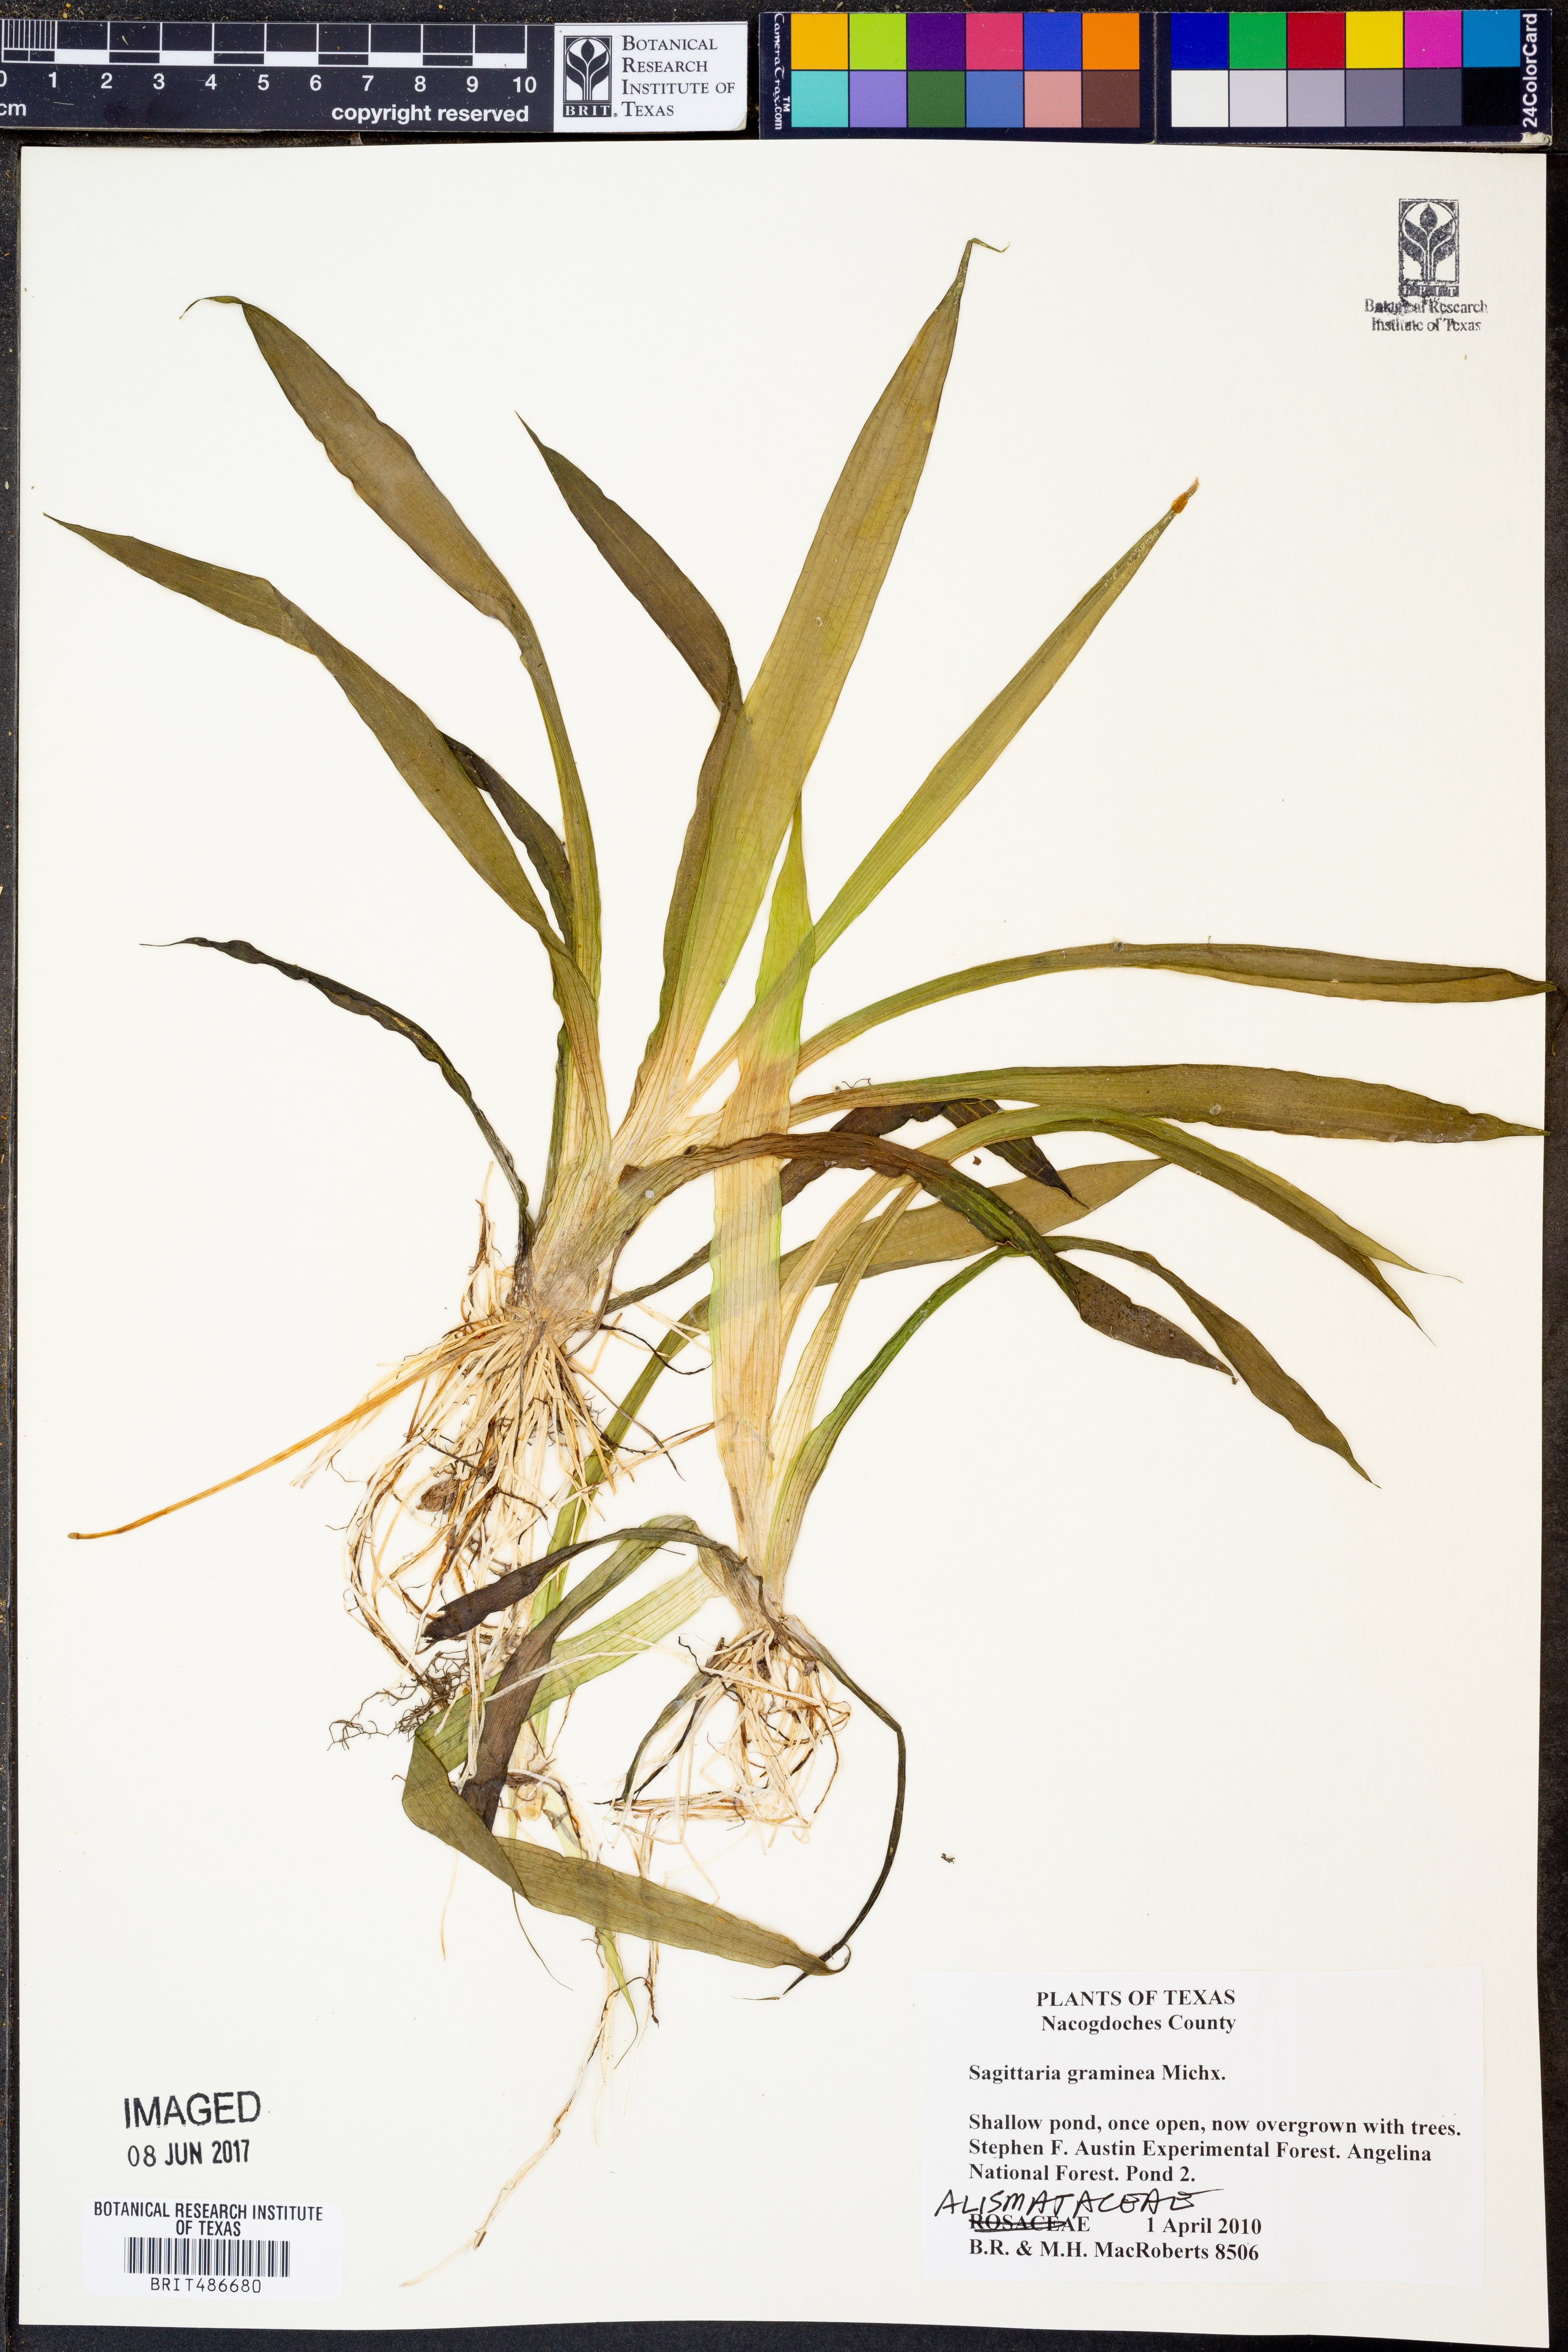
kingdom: Plantae
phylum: Tracheophyta
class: Liliopsida
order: Alismatales
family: Alismataceae
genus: Sagittaria
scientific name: Sagittaria graminea
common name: Grass-leaved arrowhead
